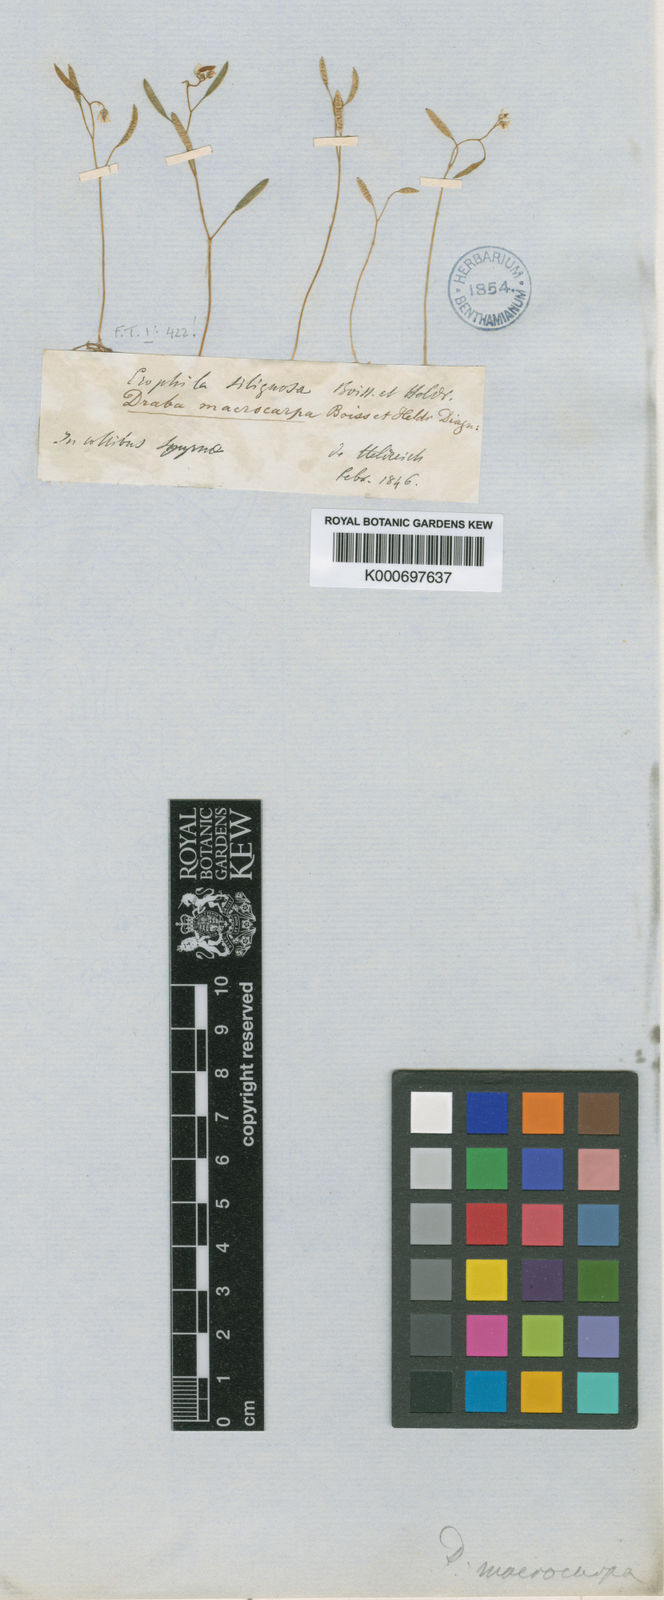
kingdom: Plantae
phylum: Tracheophyta
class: Magnoliopsida
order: Brassicales
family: Brassicaceae
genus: Draba
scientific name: Draba verna
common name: Spring draba
